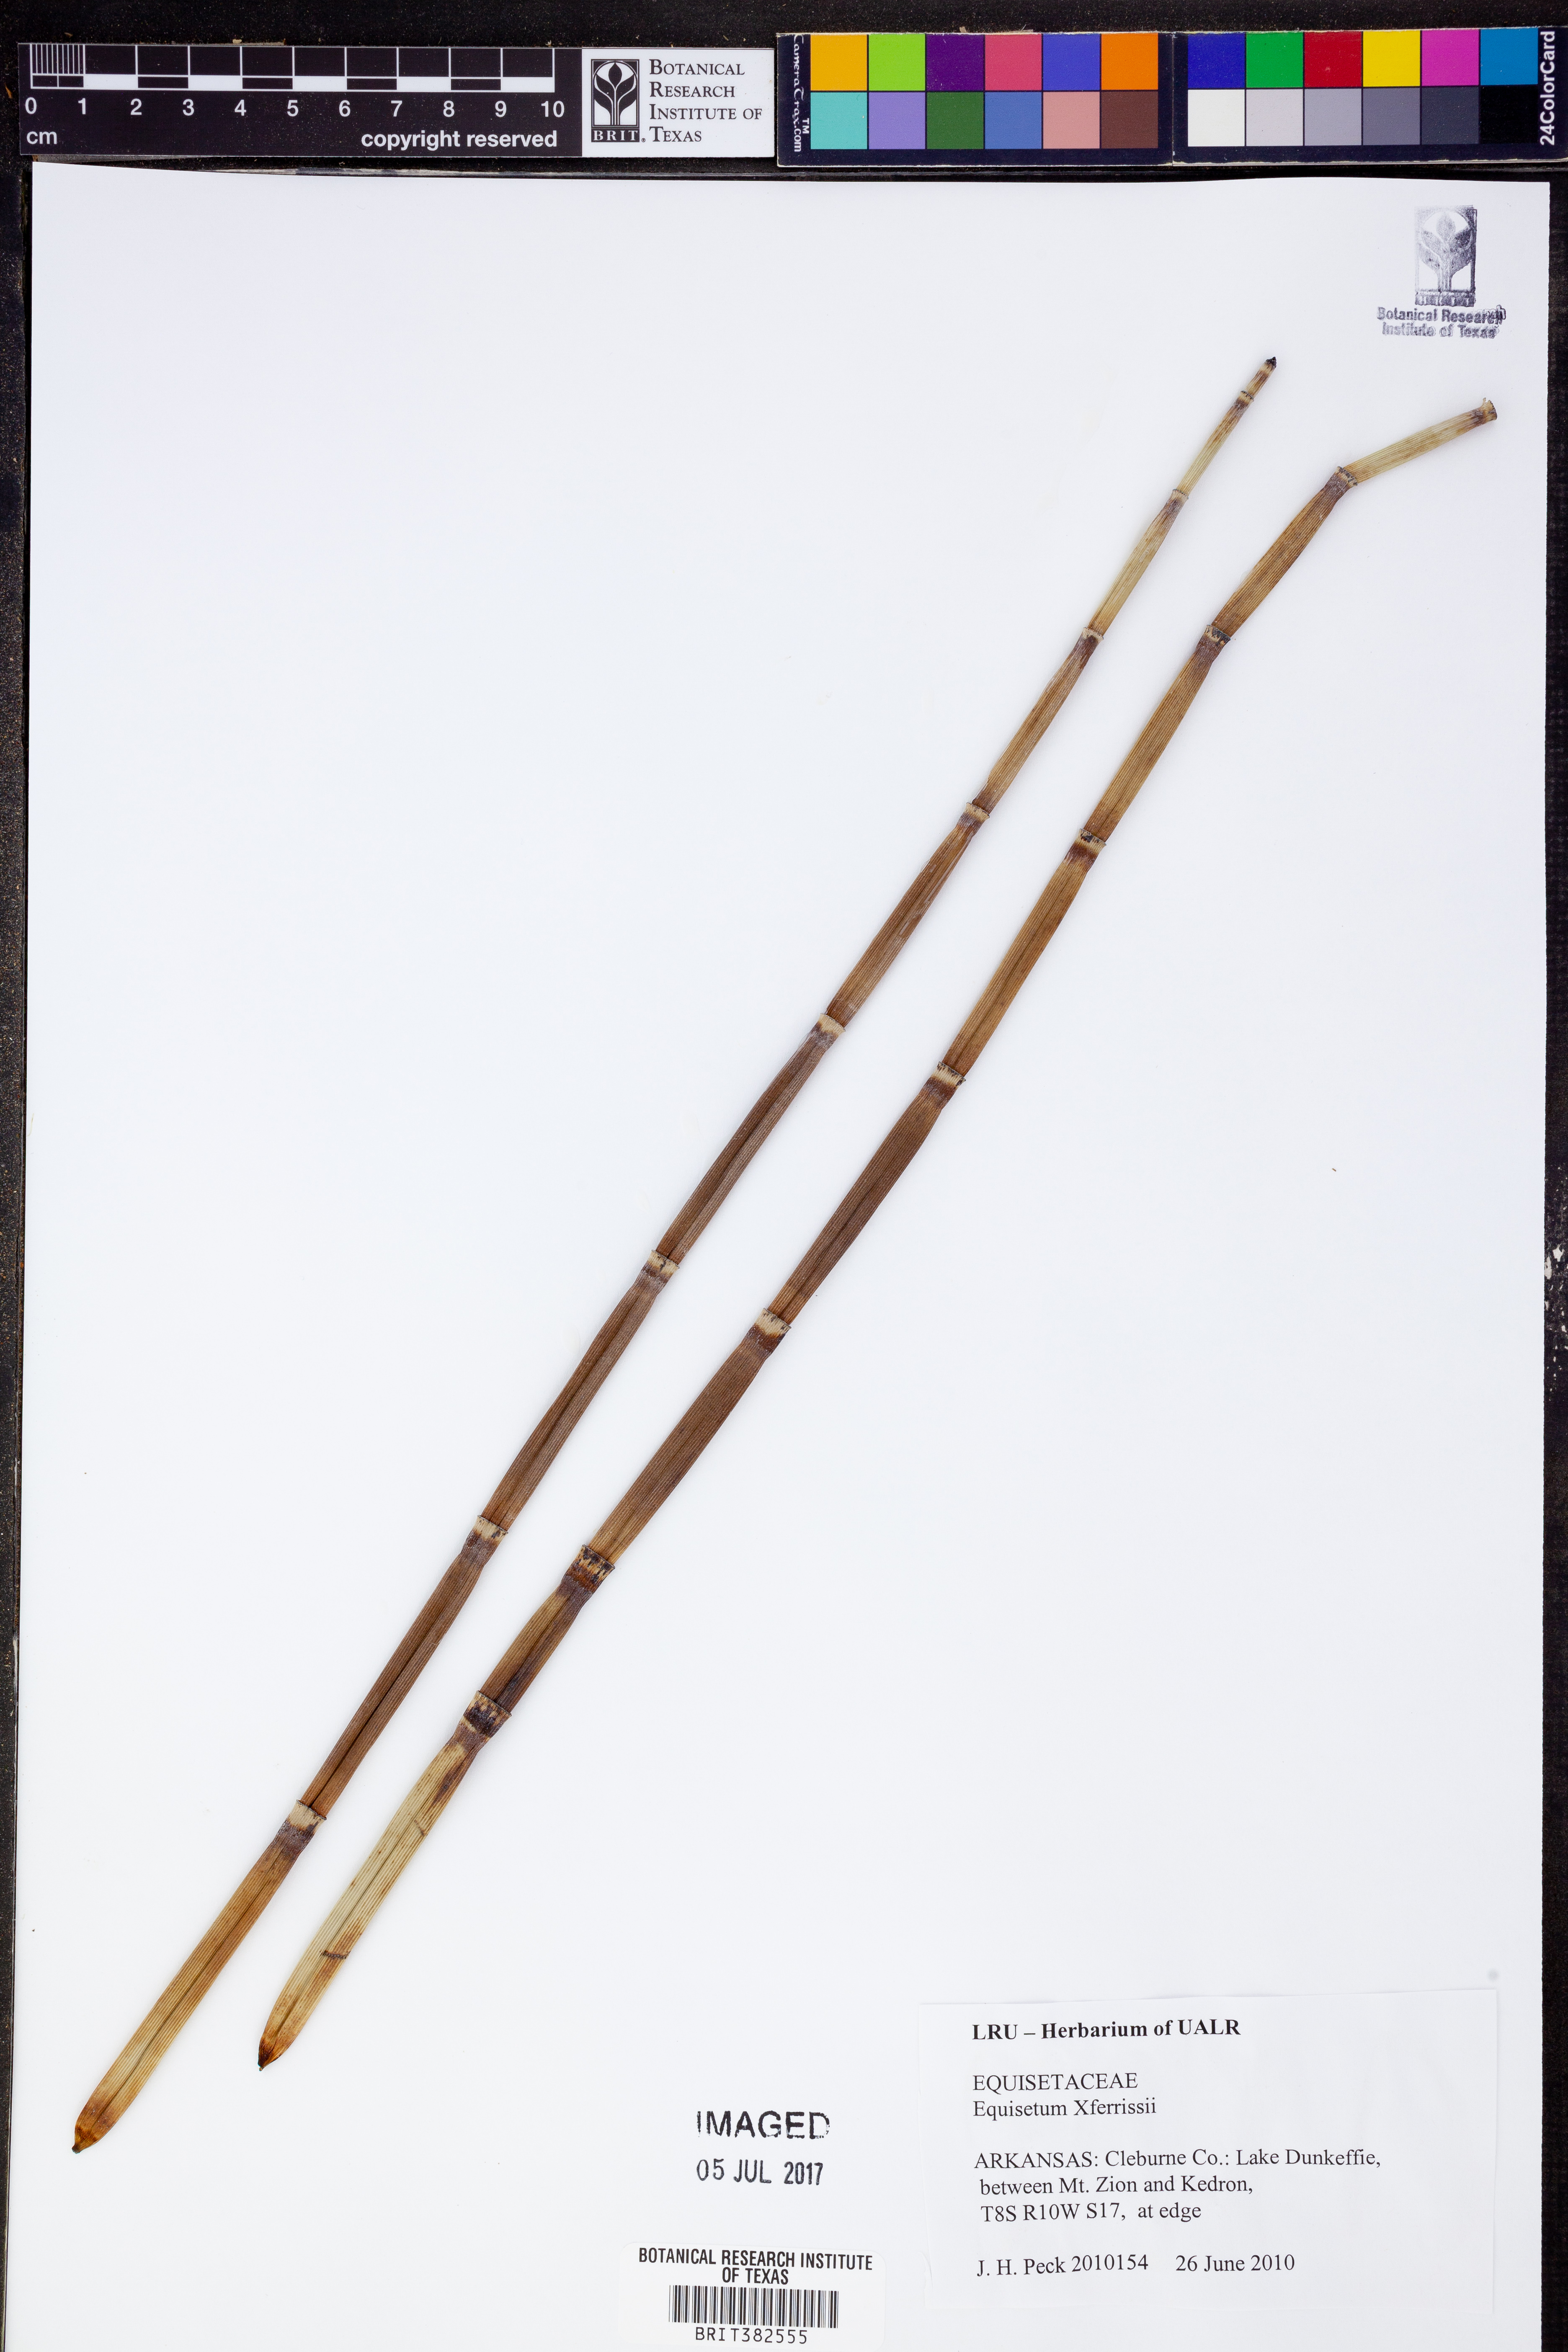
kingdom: Plantae
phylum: Tracheophyta
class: Polypodiopsida
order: Equisetales
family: Equisetaceae
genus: Equisetum
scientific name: Equisetum ferrissii
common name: Ferriss' horsetail
